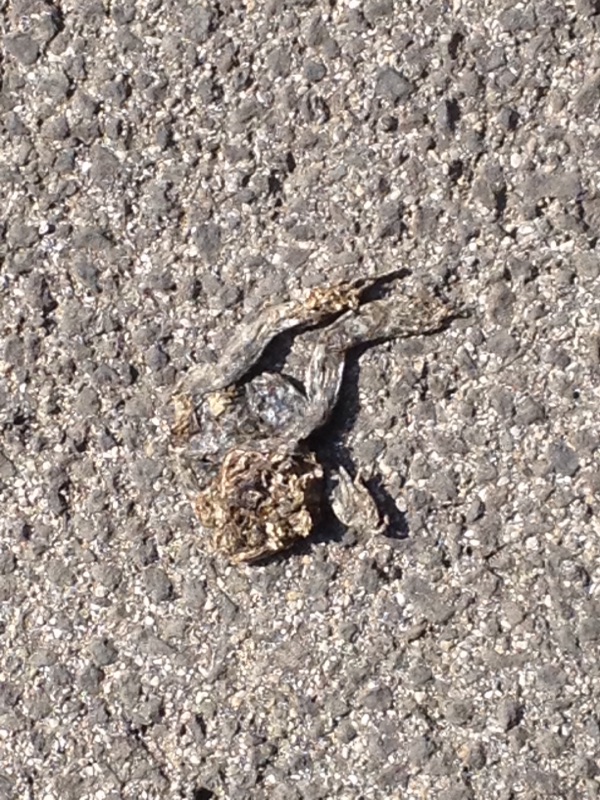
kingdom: Animalia
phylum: Chordata
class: Amphibia
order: Anura
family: Bufonidae
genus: Bufotes
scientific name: Bufotes viridis
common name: European green toad
